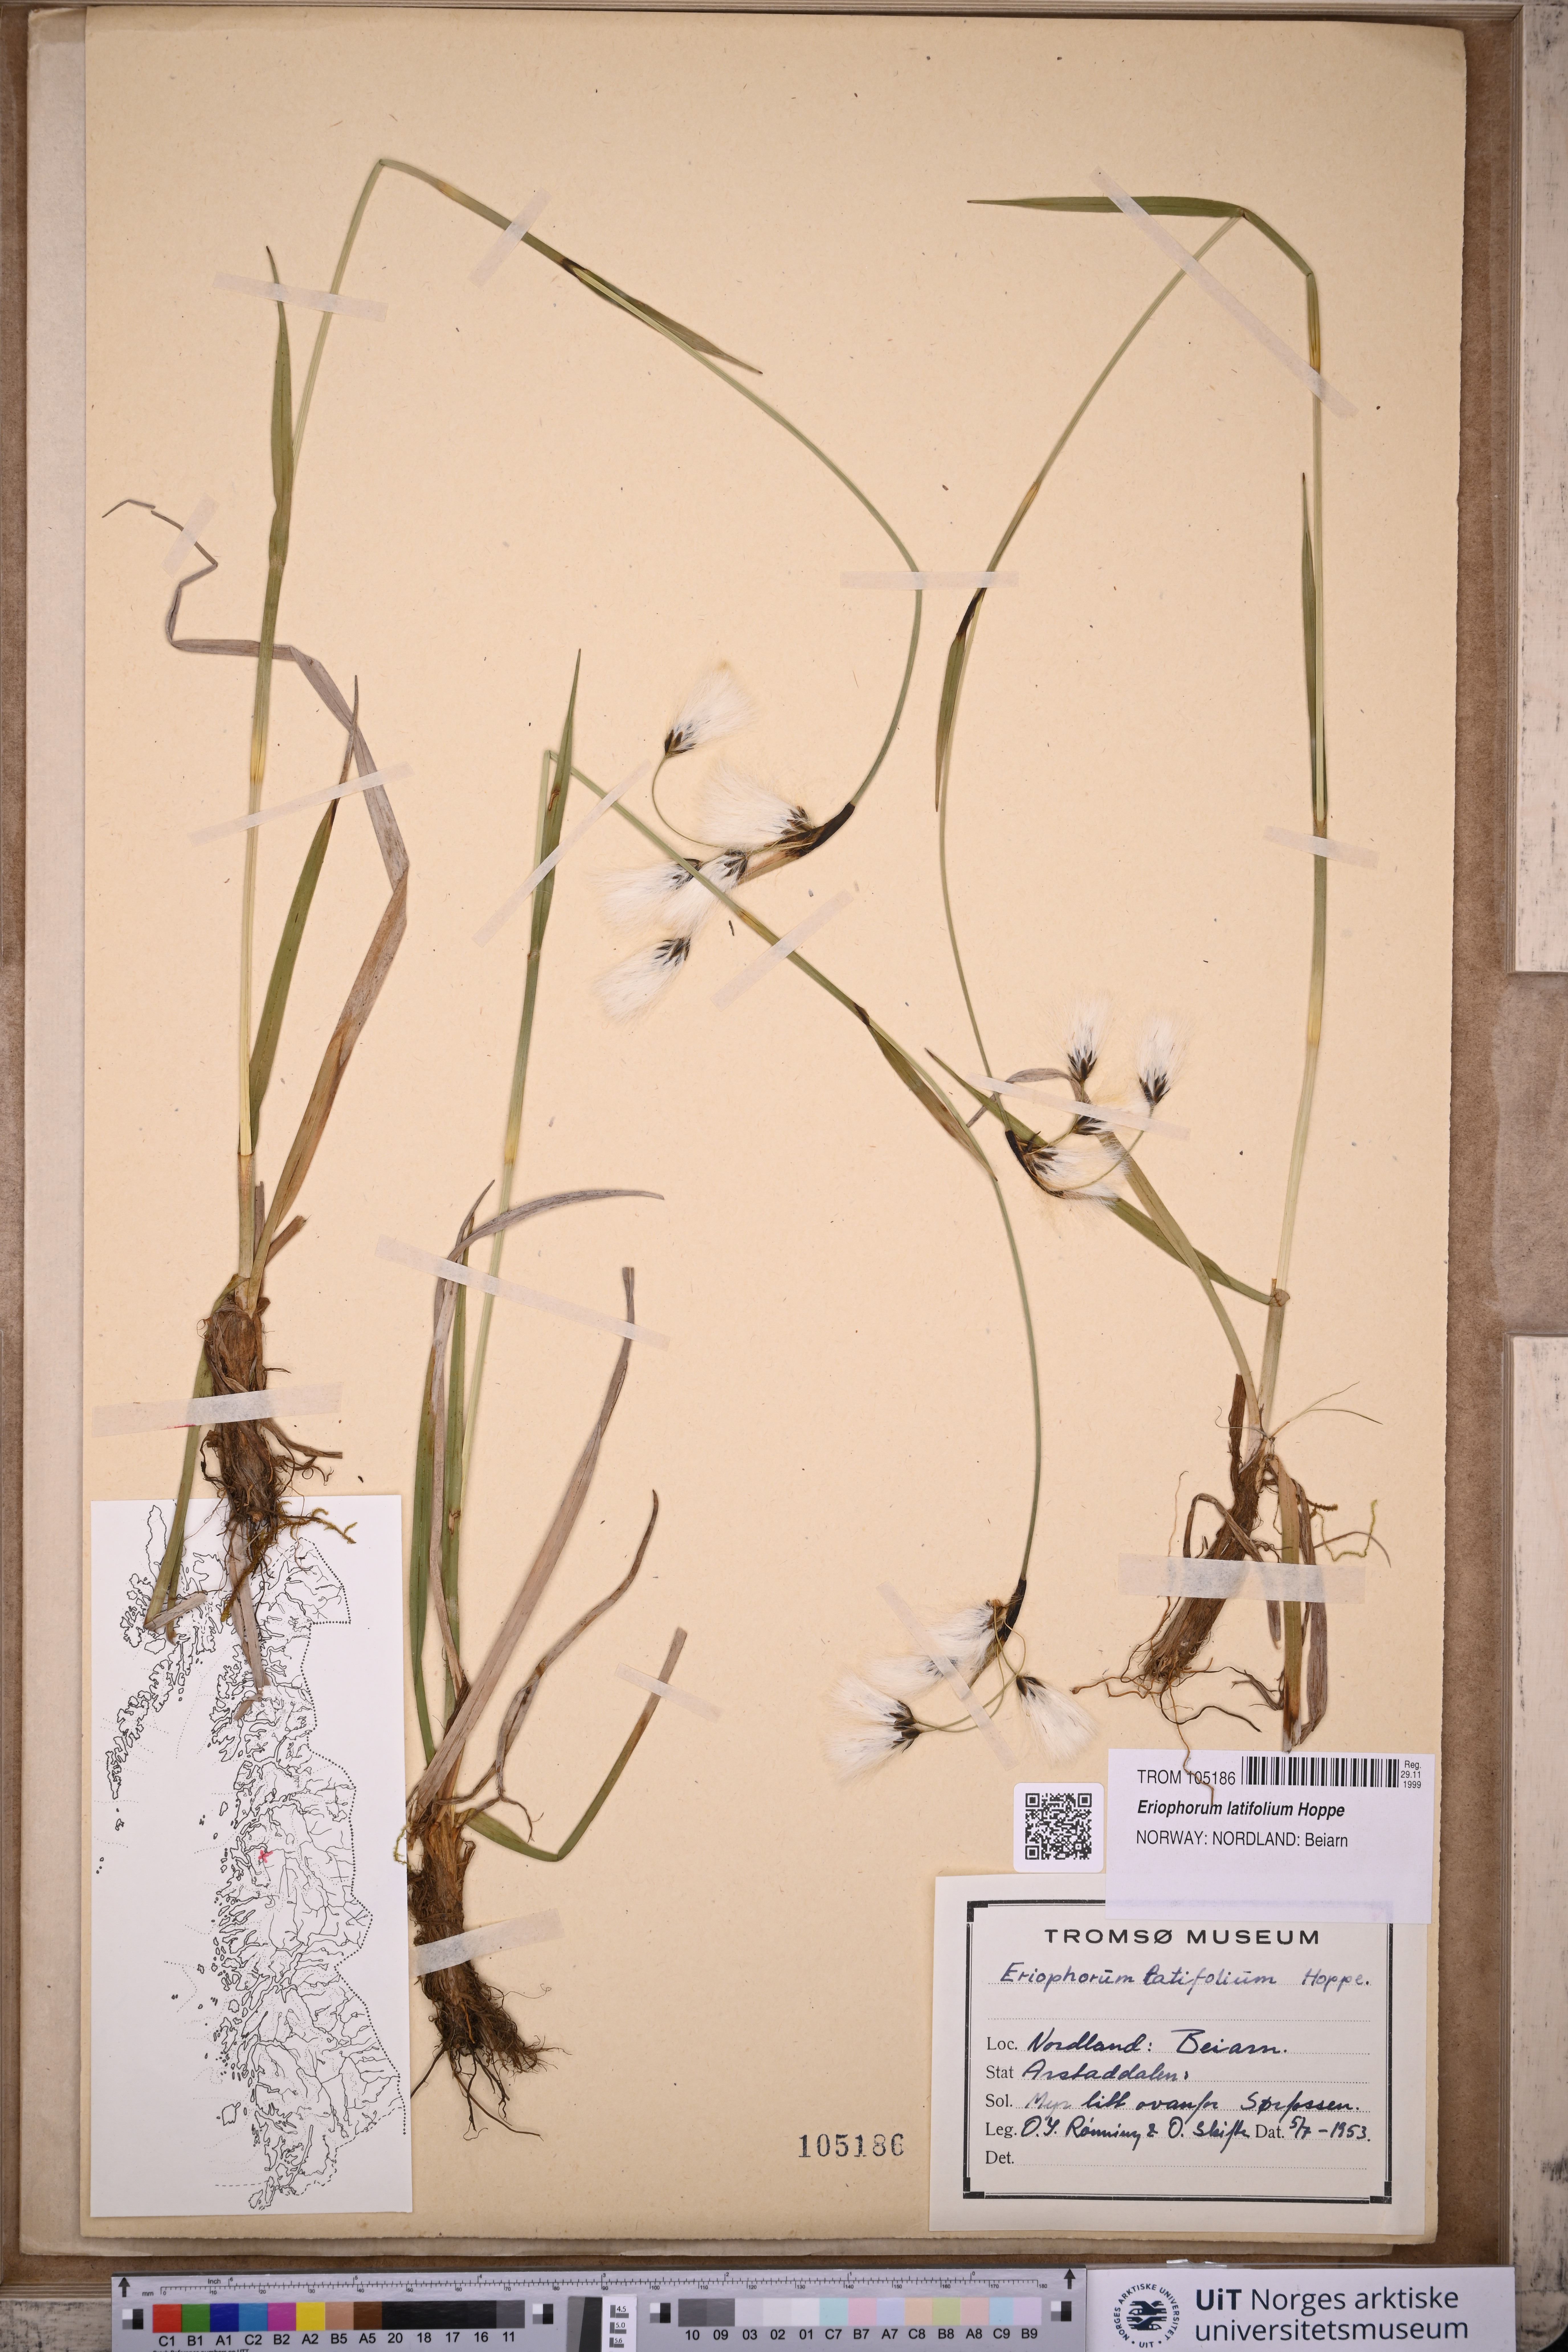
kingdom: Plantae
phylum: Tracheophyta
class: Liliopsida
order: Poales
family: Cyperaceae
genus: Eriophorum
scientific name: Eriophorum latifolium
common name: Broad-leaved cottongrass
